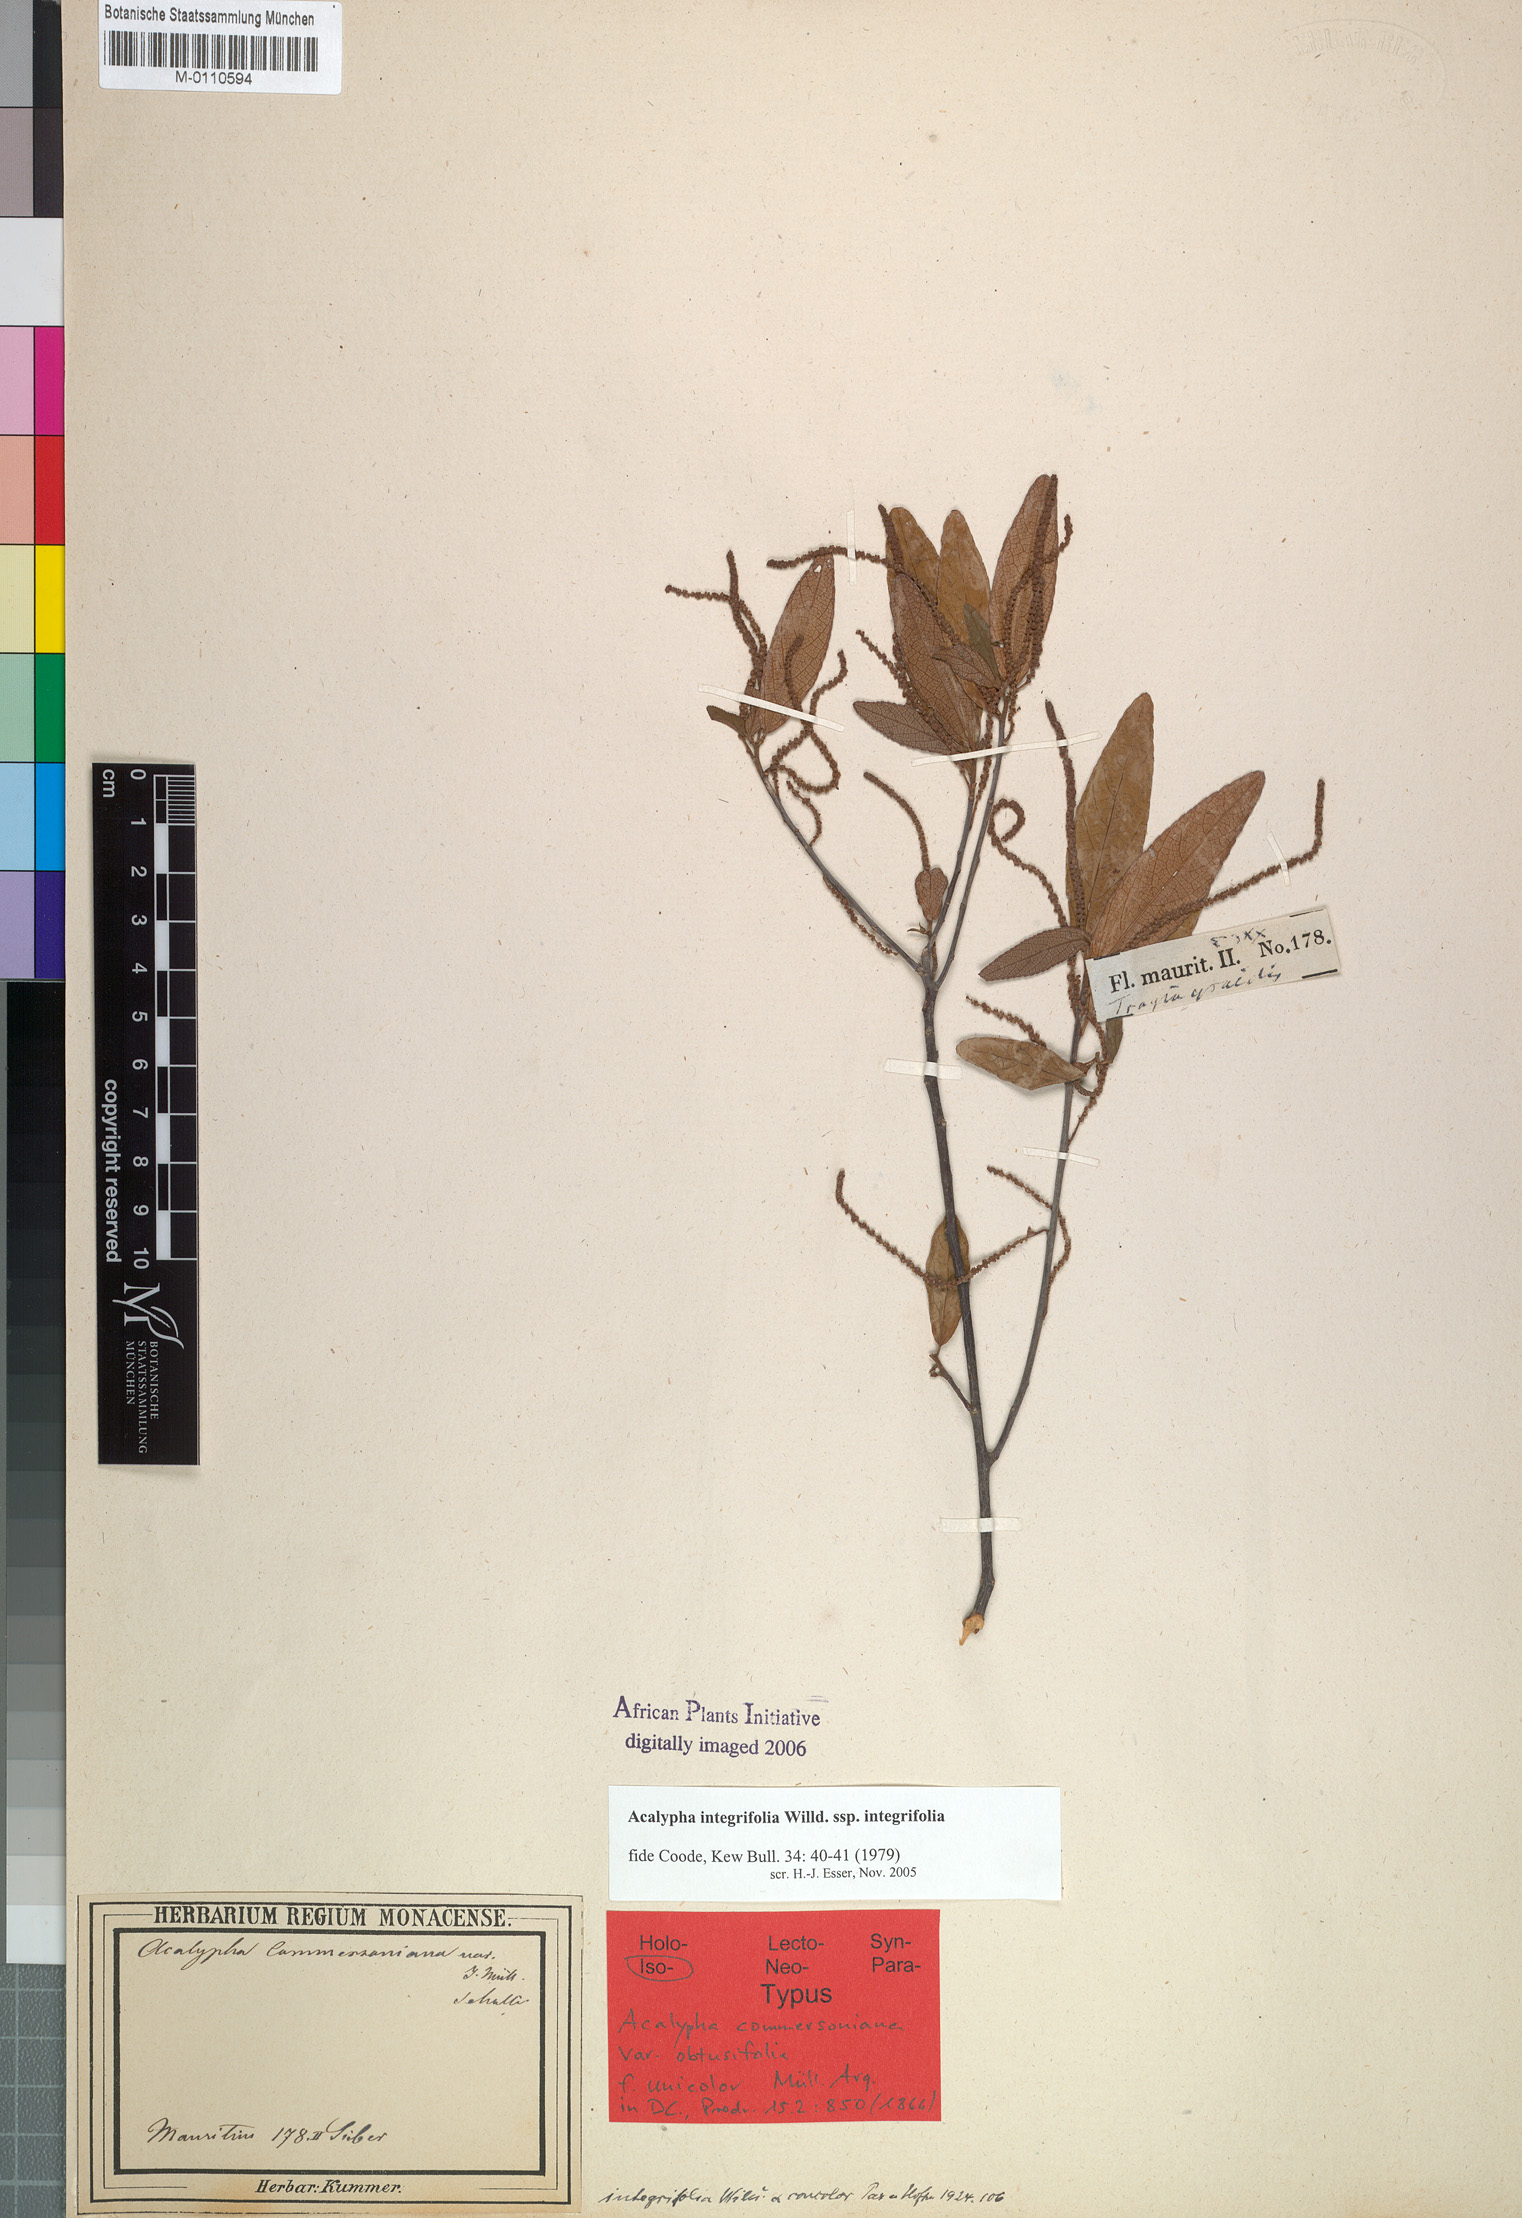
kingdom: Plantae
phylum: Tracheophyta
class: Magnoliopsida
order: Malpighiales
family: Euphorbiaceae
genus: Acalypha
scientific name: Acalypha integrifolia
